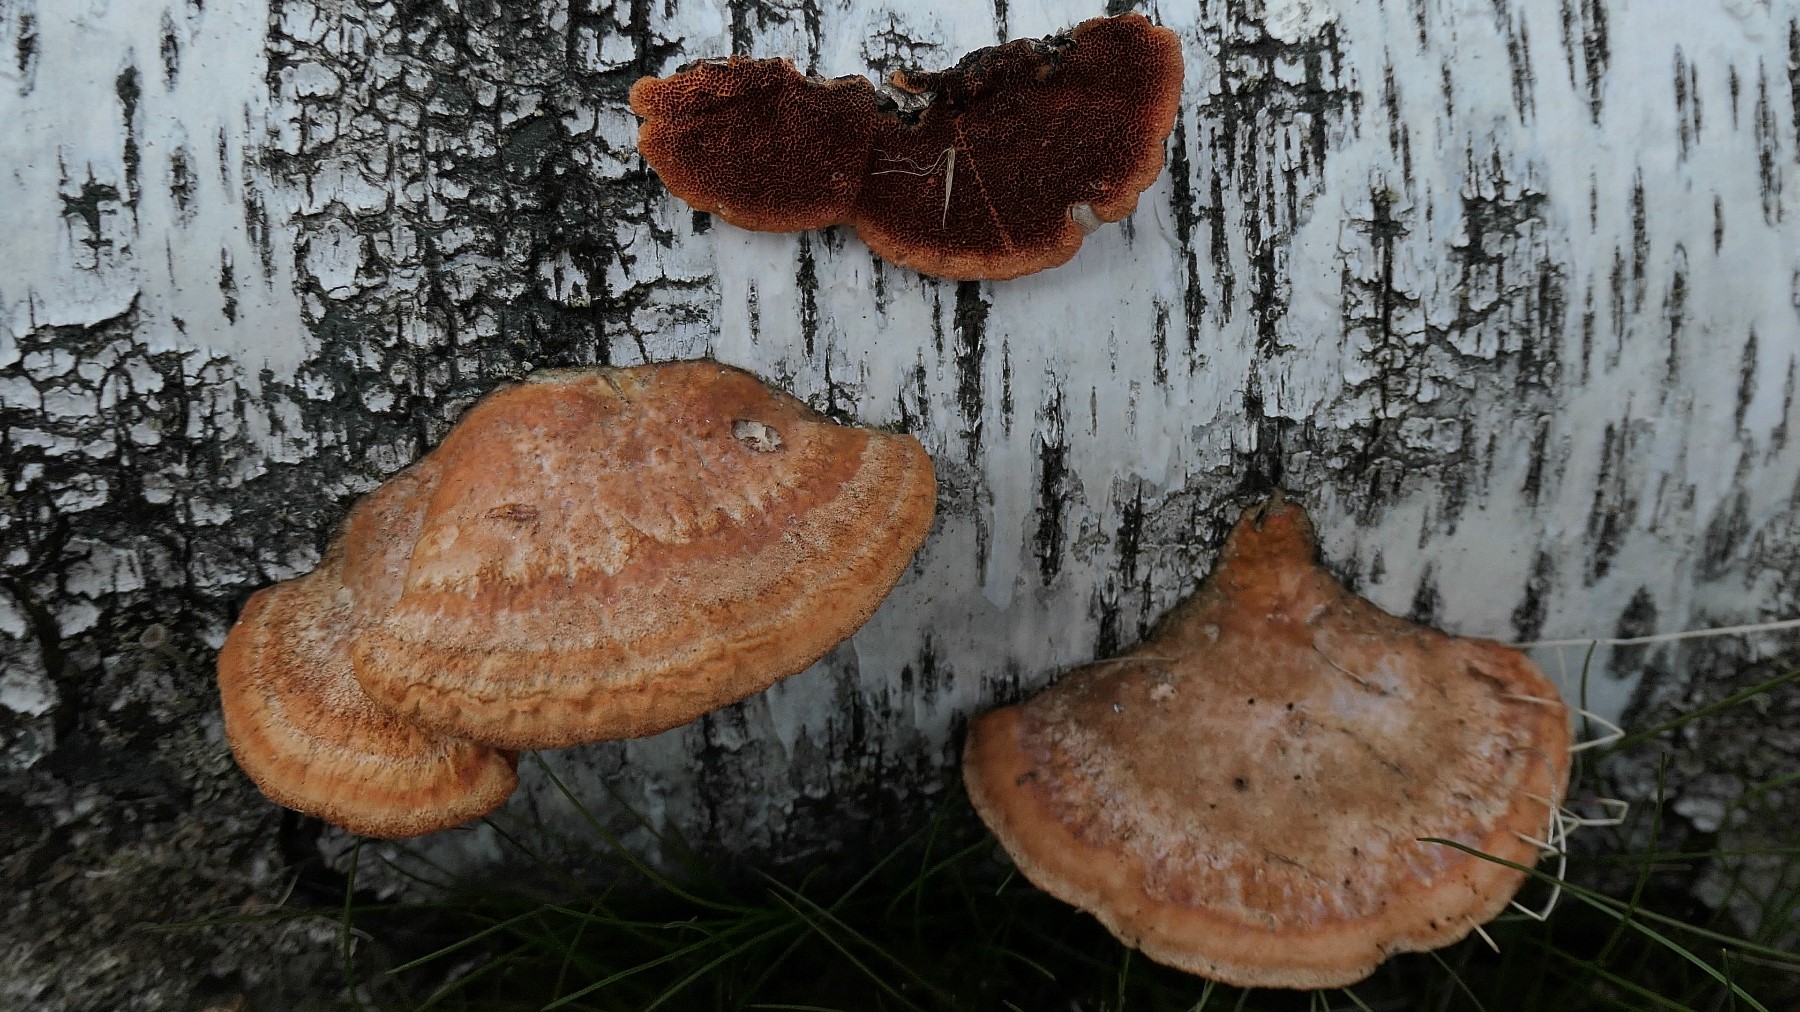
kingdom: Fungi
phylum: Basidiomycota
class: Agaricomycetes
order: Polyporales
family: Polyporaceae
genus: Trametes
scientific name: Trametes cinnabarina
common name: cinnoberporesvamp
